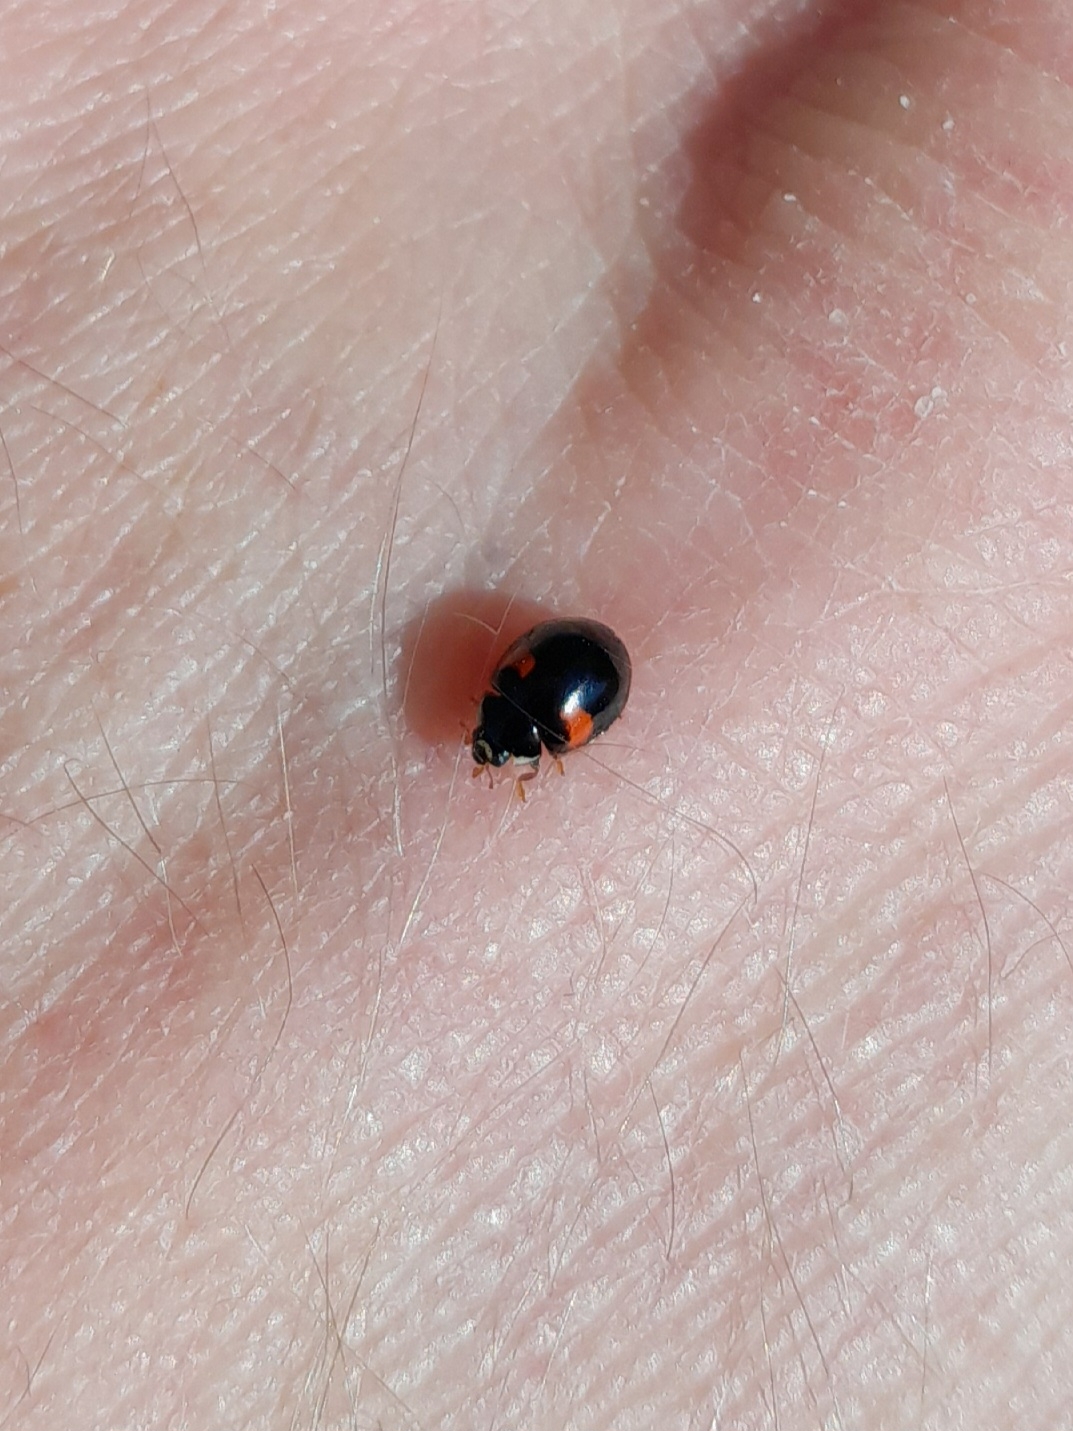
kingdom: Animalia
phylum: Arthropoda
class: Insecta
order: Coleoptera
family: Coccinellidae
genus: Adalia
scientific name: Adalia decempunctata
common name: Tiplettet mariehøne
